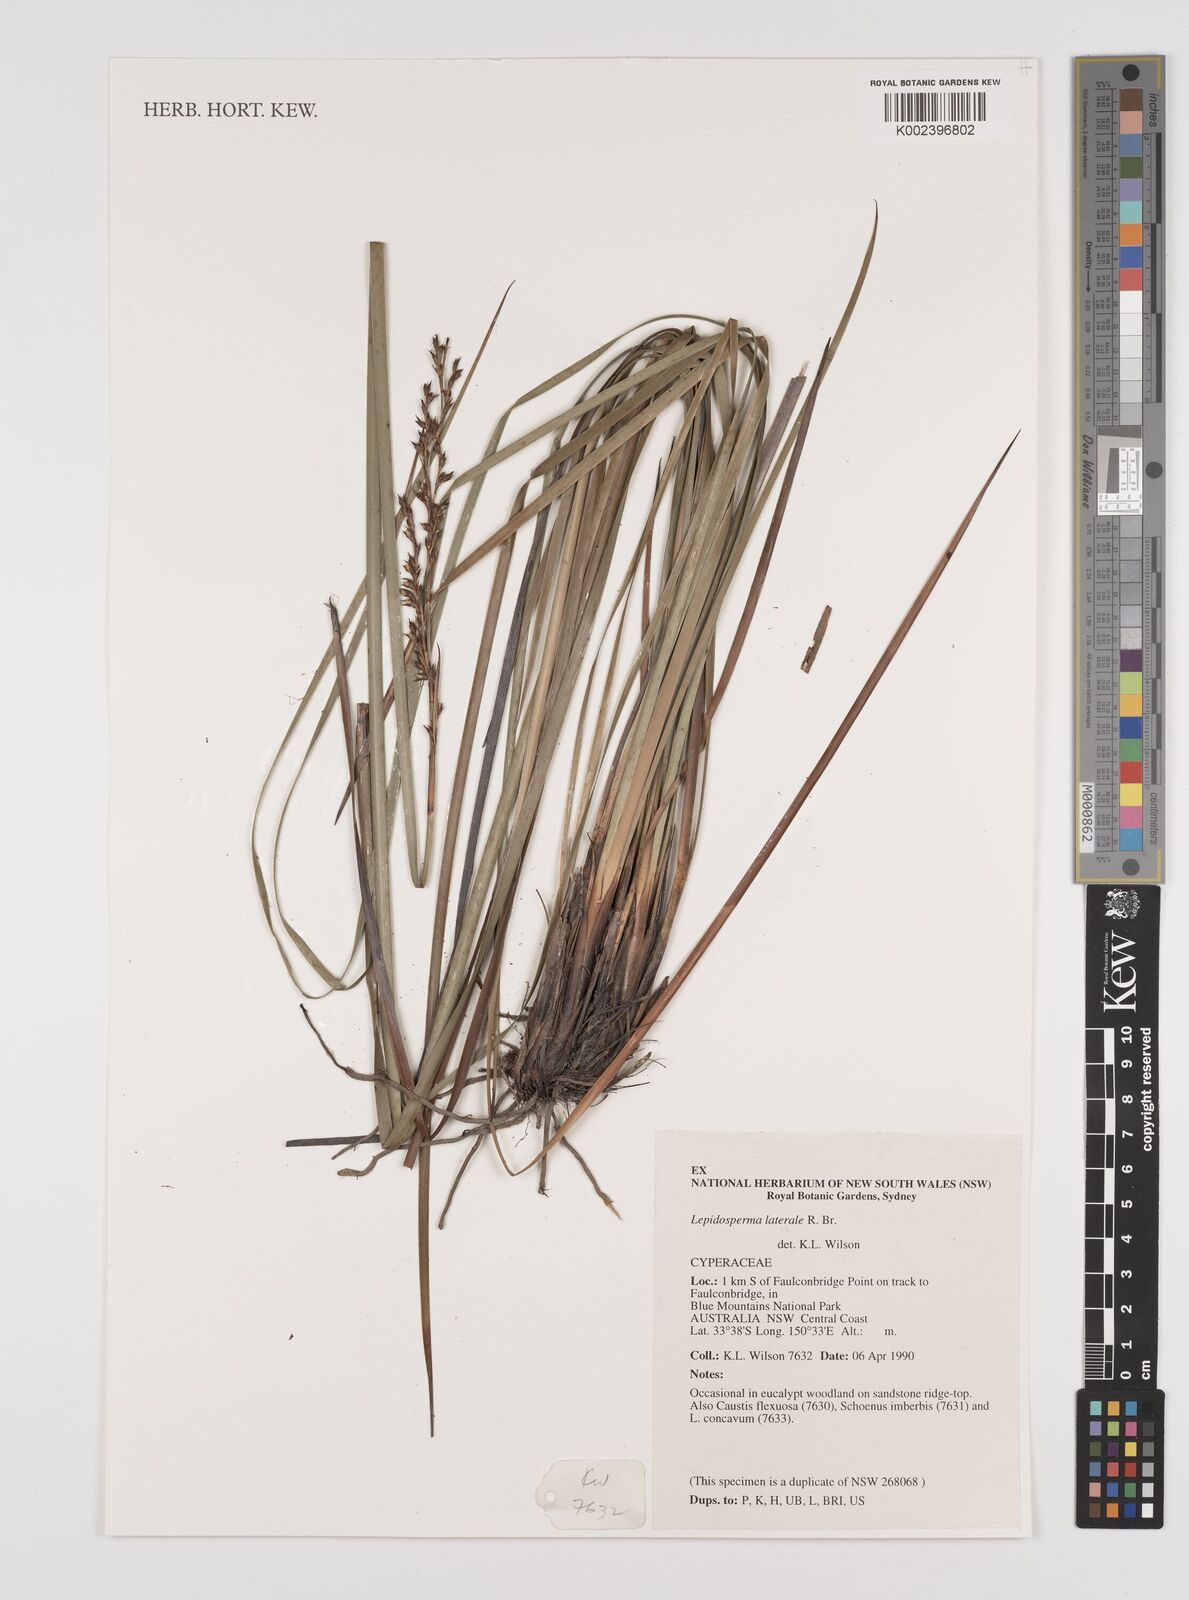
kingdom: Plantae
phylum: Tracheophyta
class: Liliopsida
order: Poales
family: Cyperaceae
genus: Lepidosperma
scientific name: Lepidosperma laterale
